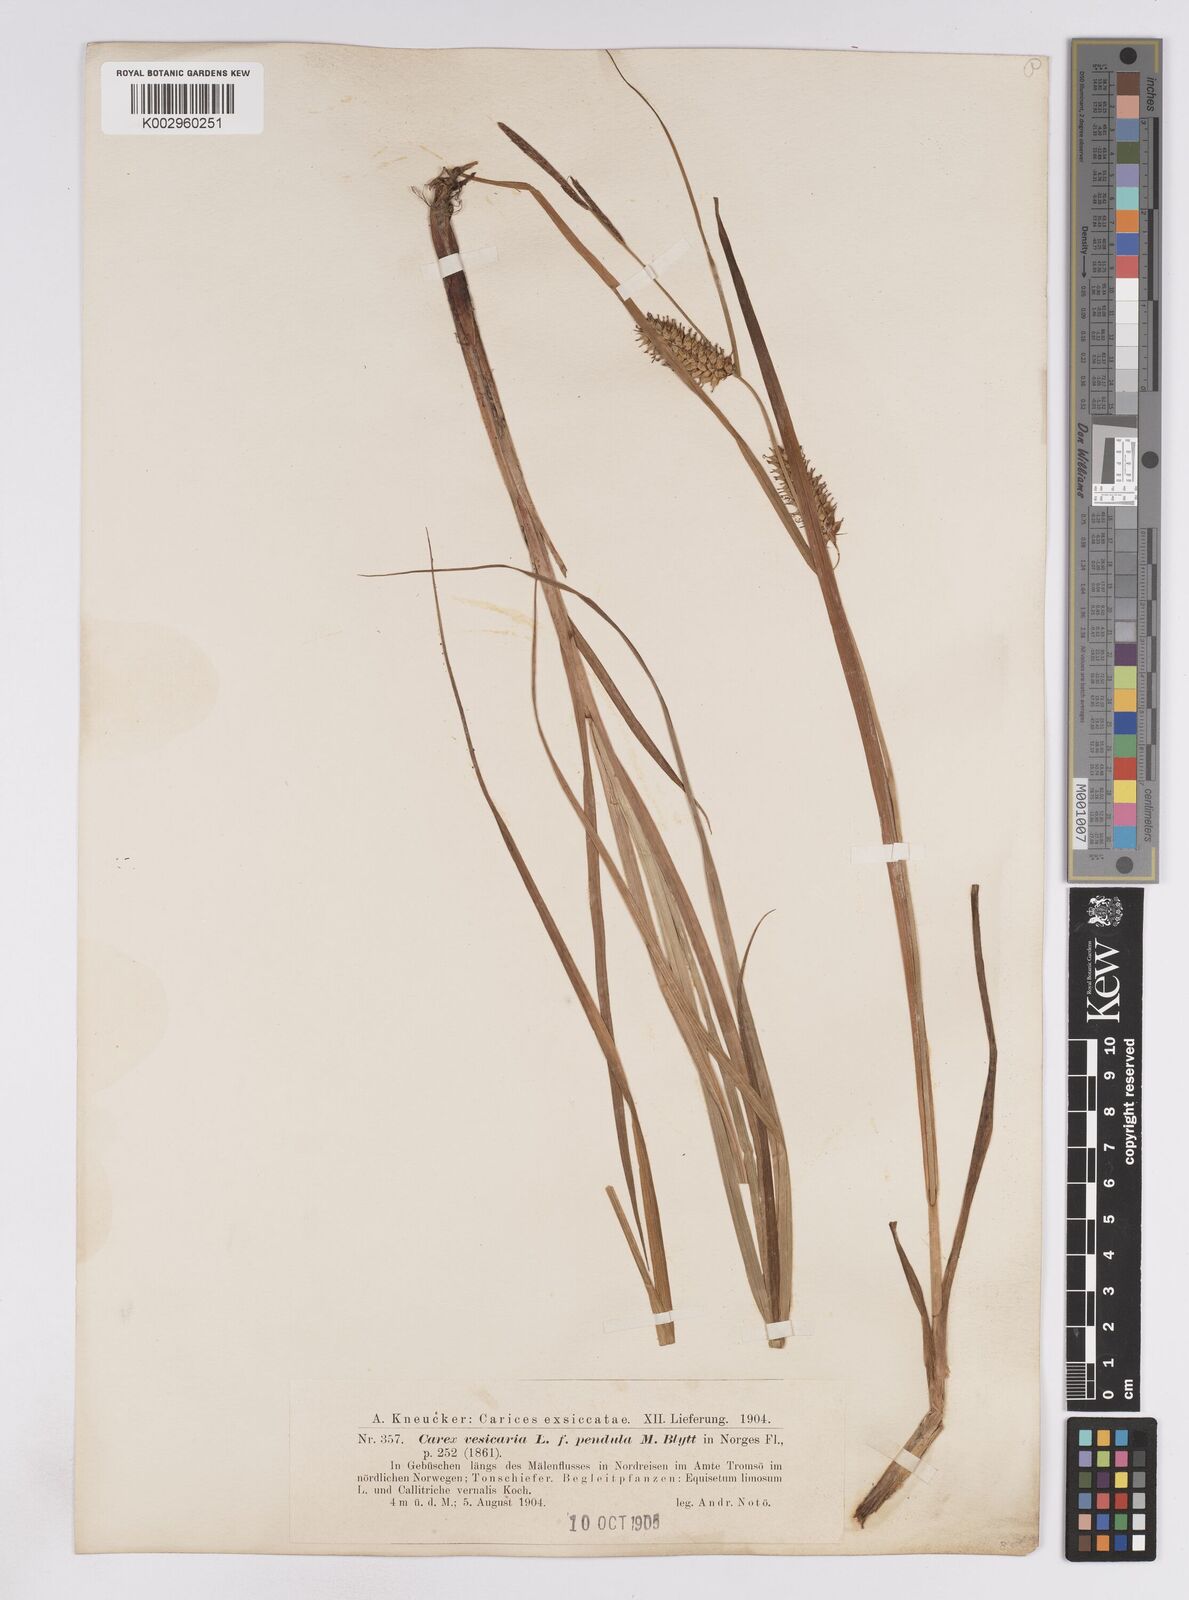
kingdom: Plantae
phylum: Tracheophyta
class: Liliopsida
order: Poales
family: Cyperaceae
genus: Carex
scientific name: Carex vesicaria
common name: Bladder-sedge
